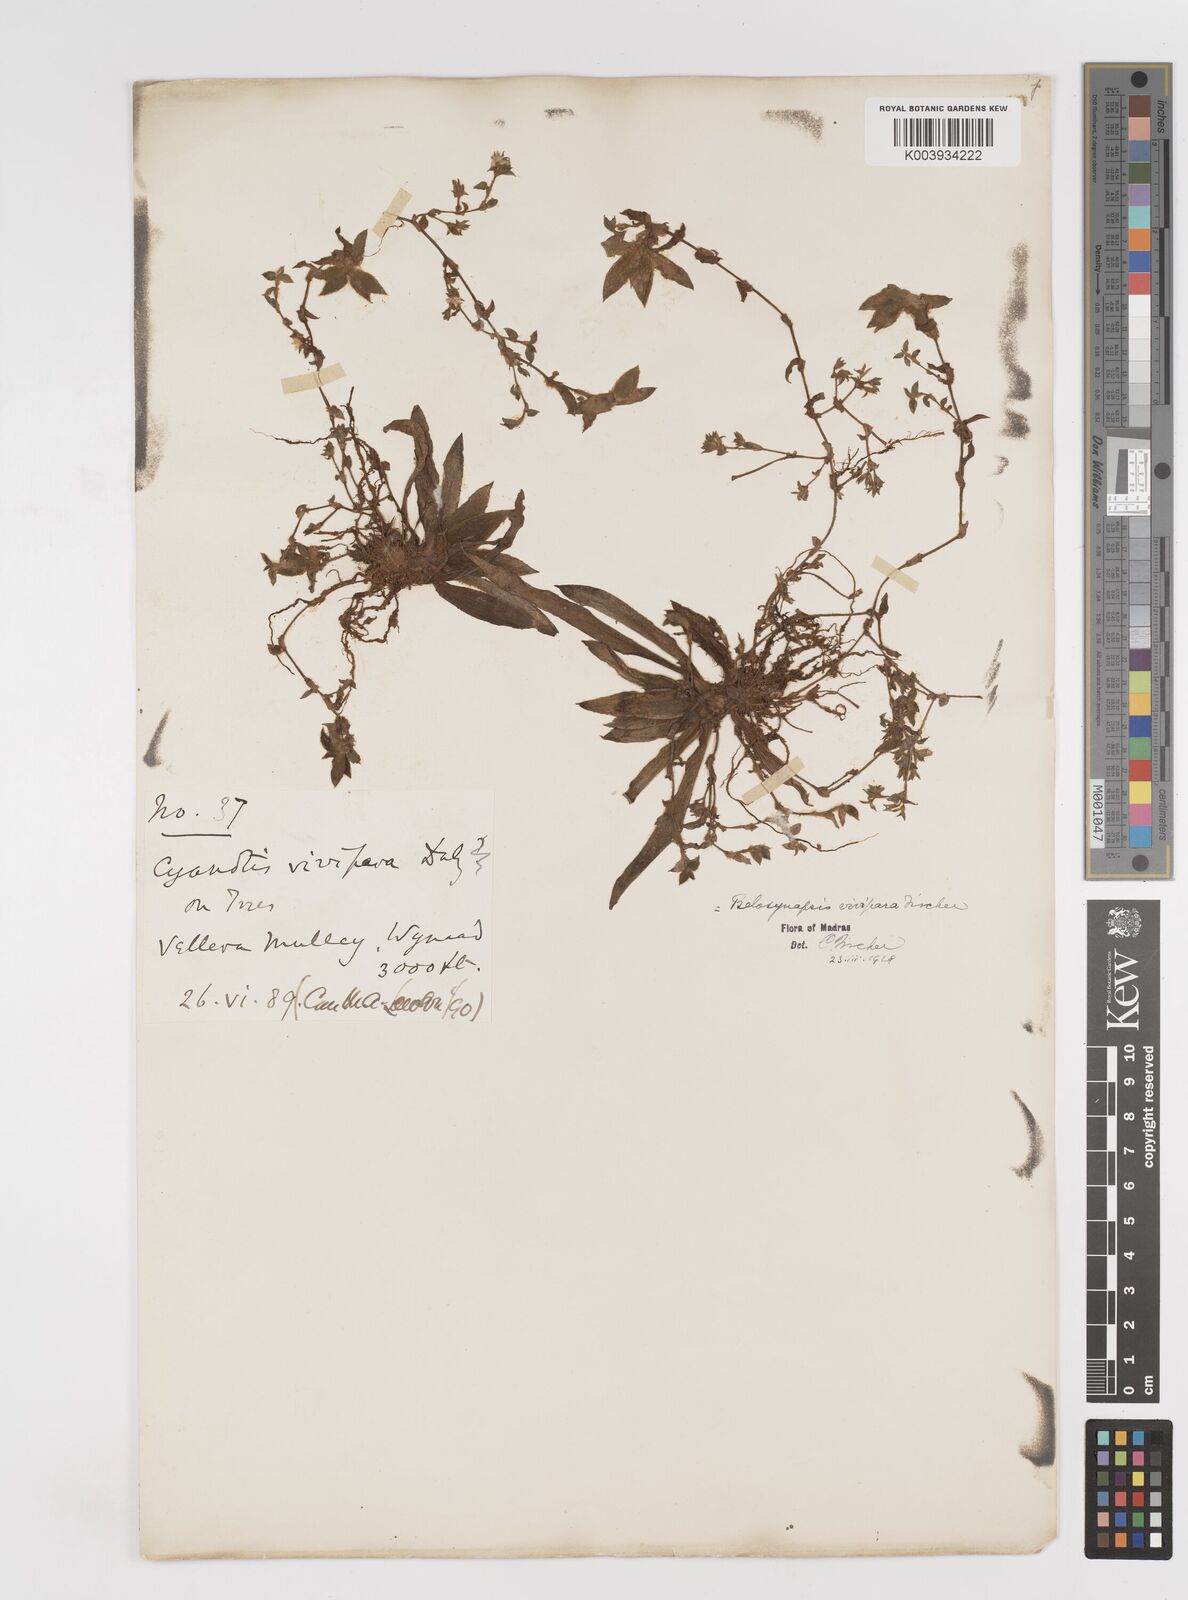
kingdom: Plantae
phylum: Tracheophyta
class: Liliopsida
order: Commelinales
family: Commelinaceae
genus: Cyanotis
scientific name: Cyanotis vivipara
